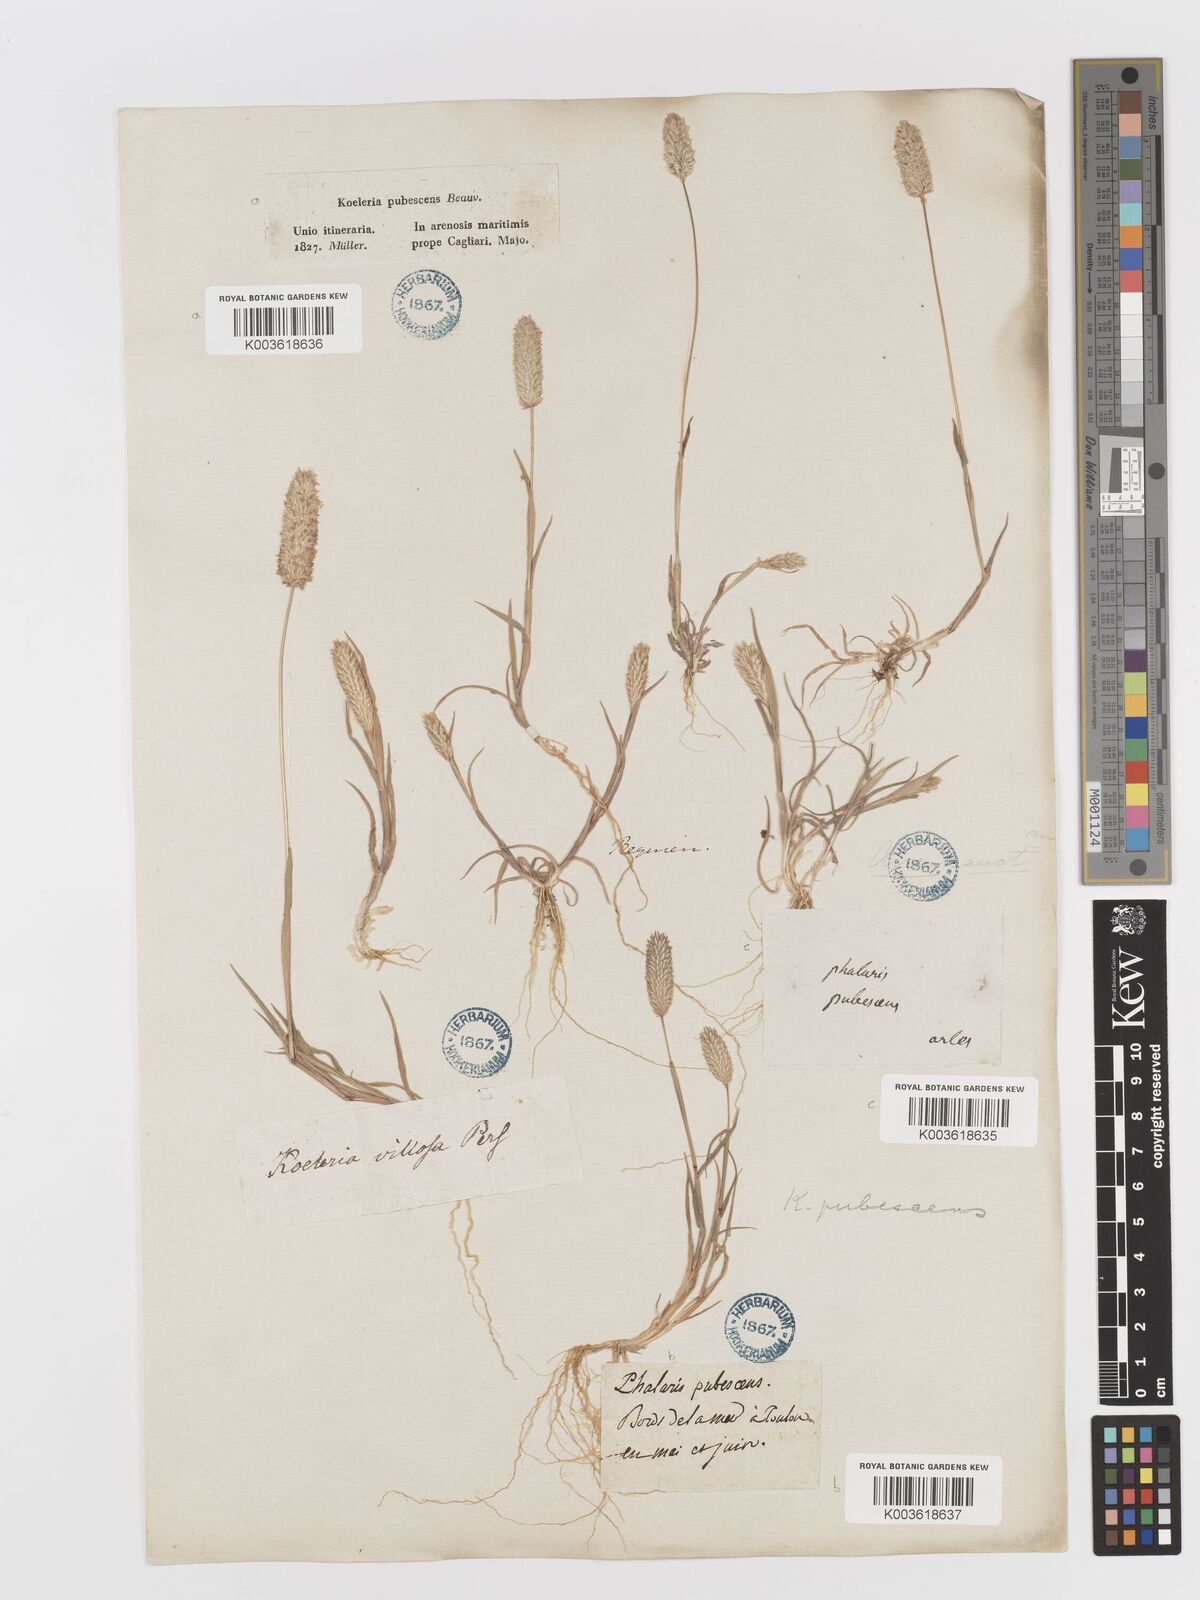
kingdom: Plantae
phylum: Tracheophyta
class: Liliopsida
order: Poales
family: Poaceae
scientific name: Poaceae
